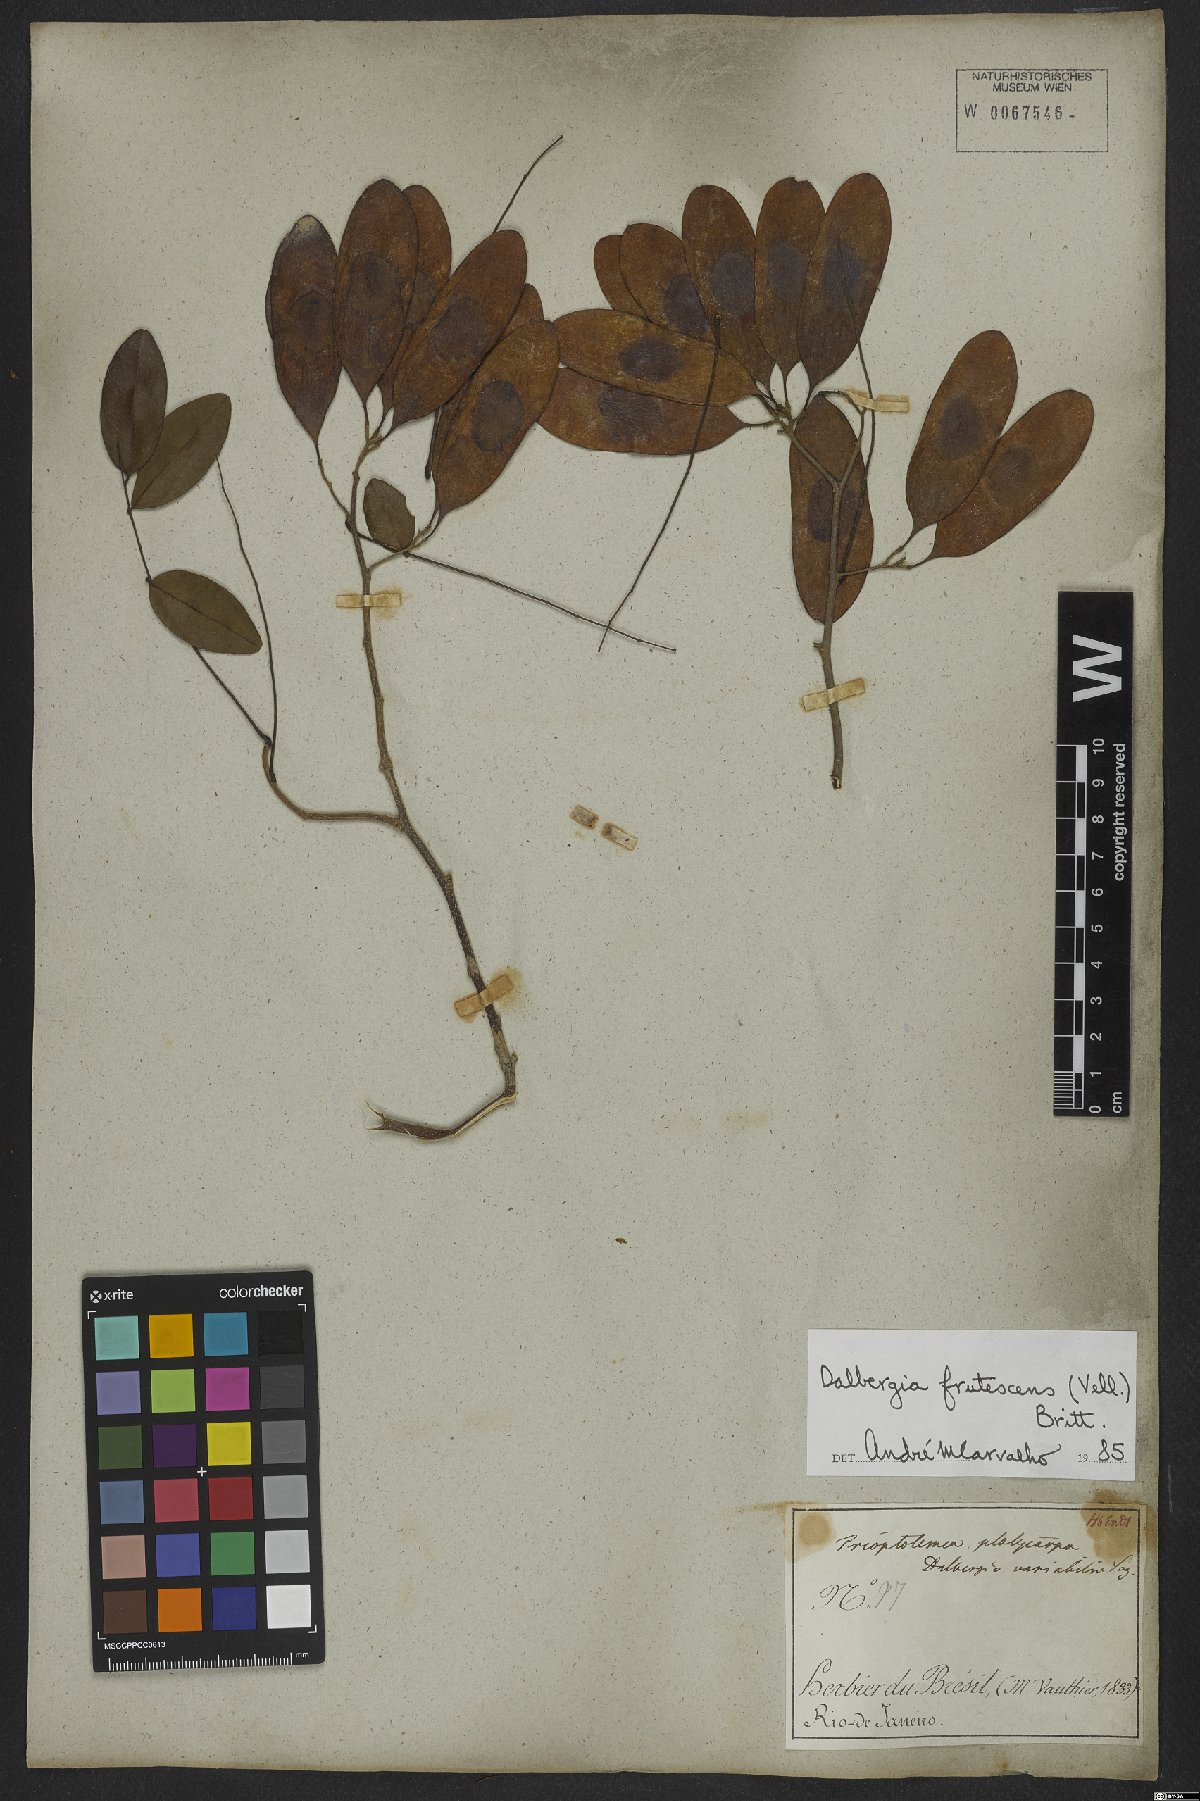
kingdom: Plantae
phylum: Tracheophyta
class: Magnoliopsida
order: Fabales
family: Fabaceae
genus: Dalbergia
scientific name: Dalbergia frutescens
